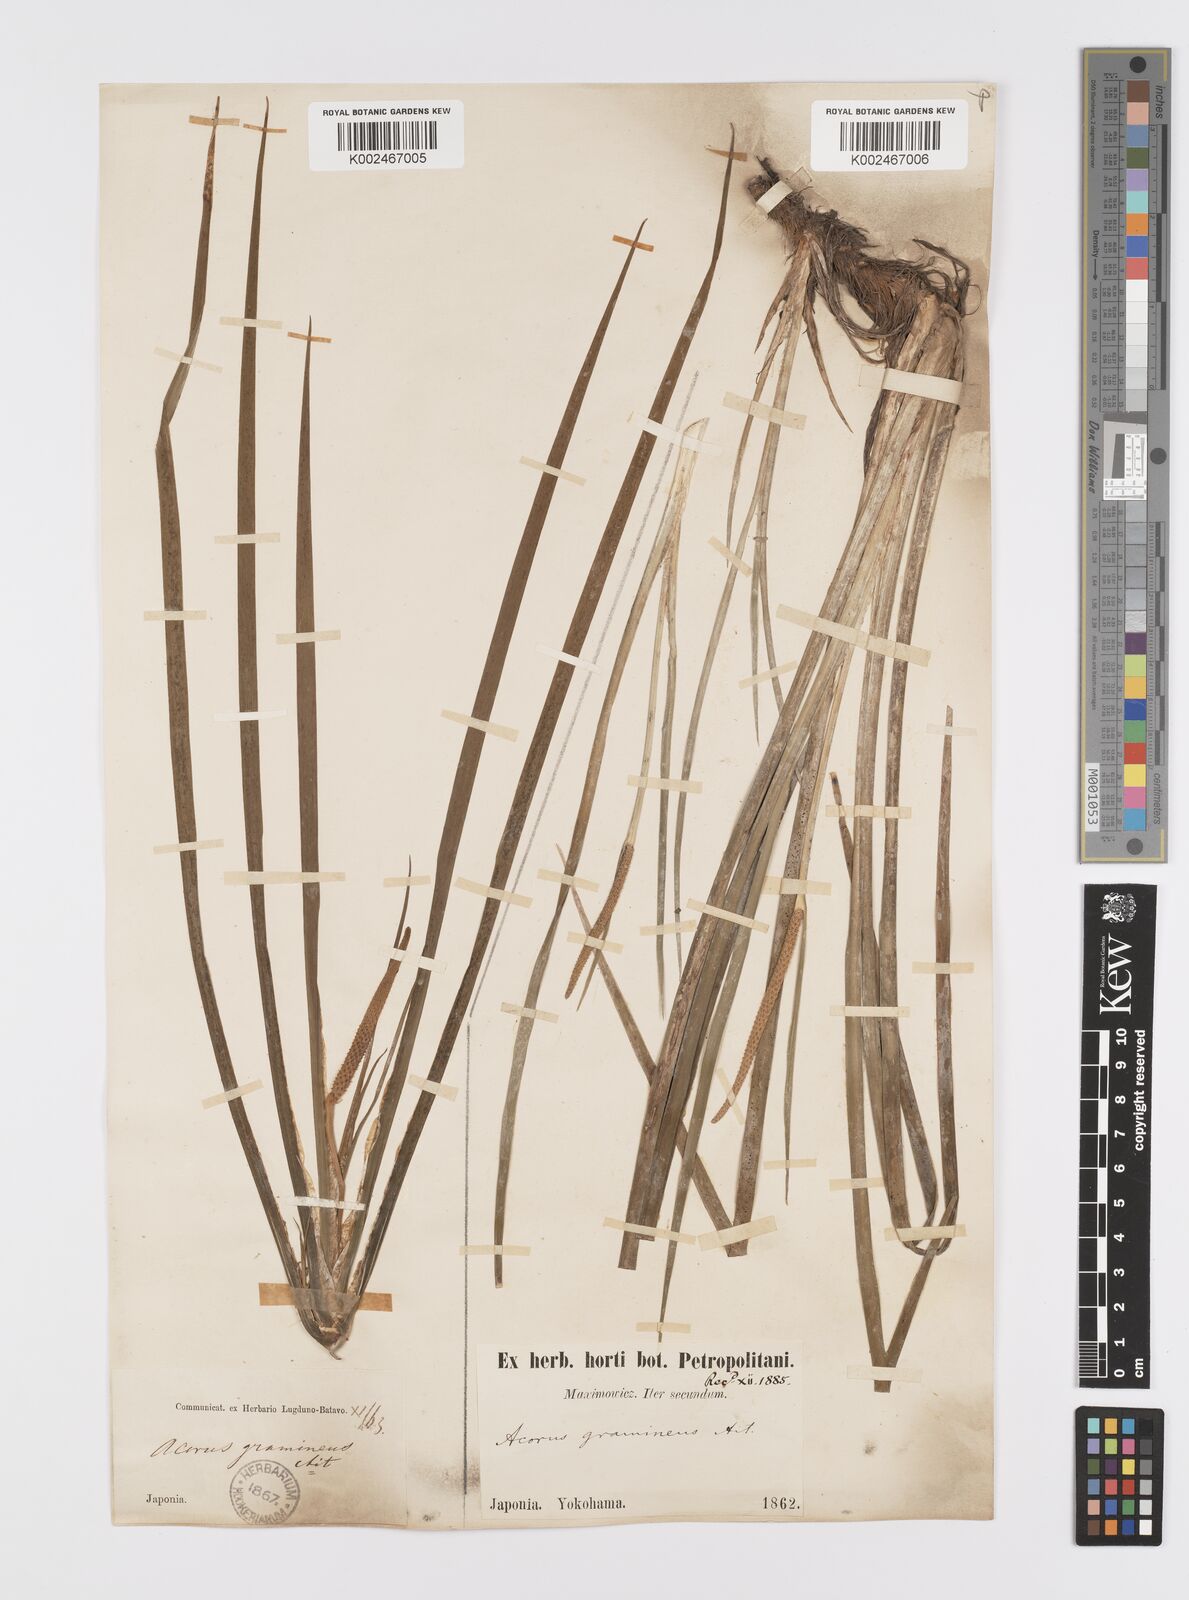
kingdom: Plantae
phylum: Tracheophyta
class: Liliopsida
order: Acorales
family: Acoraceae
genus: Acorus
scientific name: Acorus gramineus
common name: Slender sweet-flag
